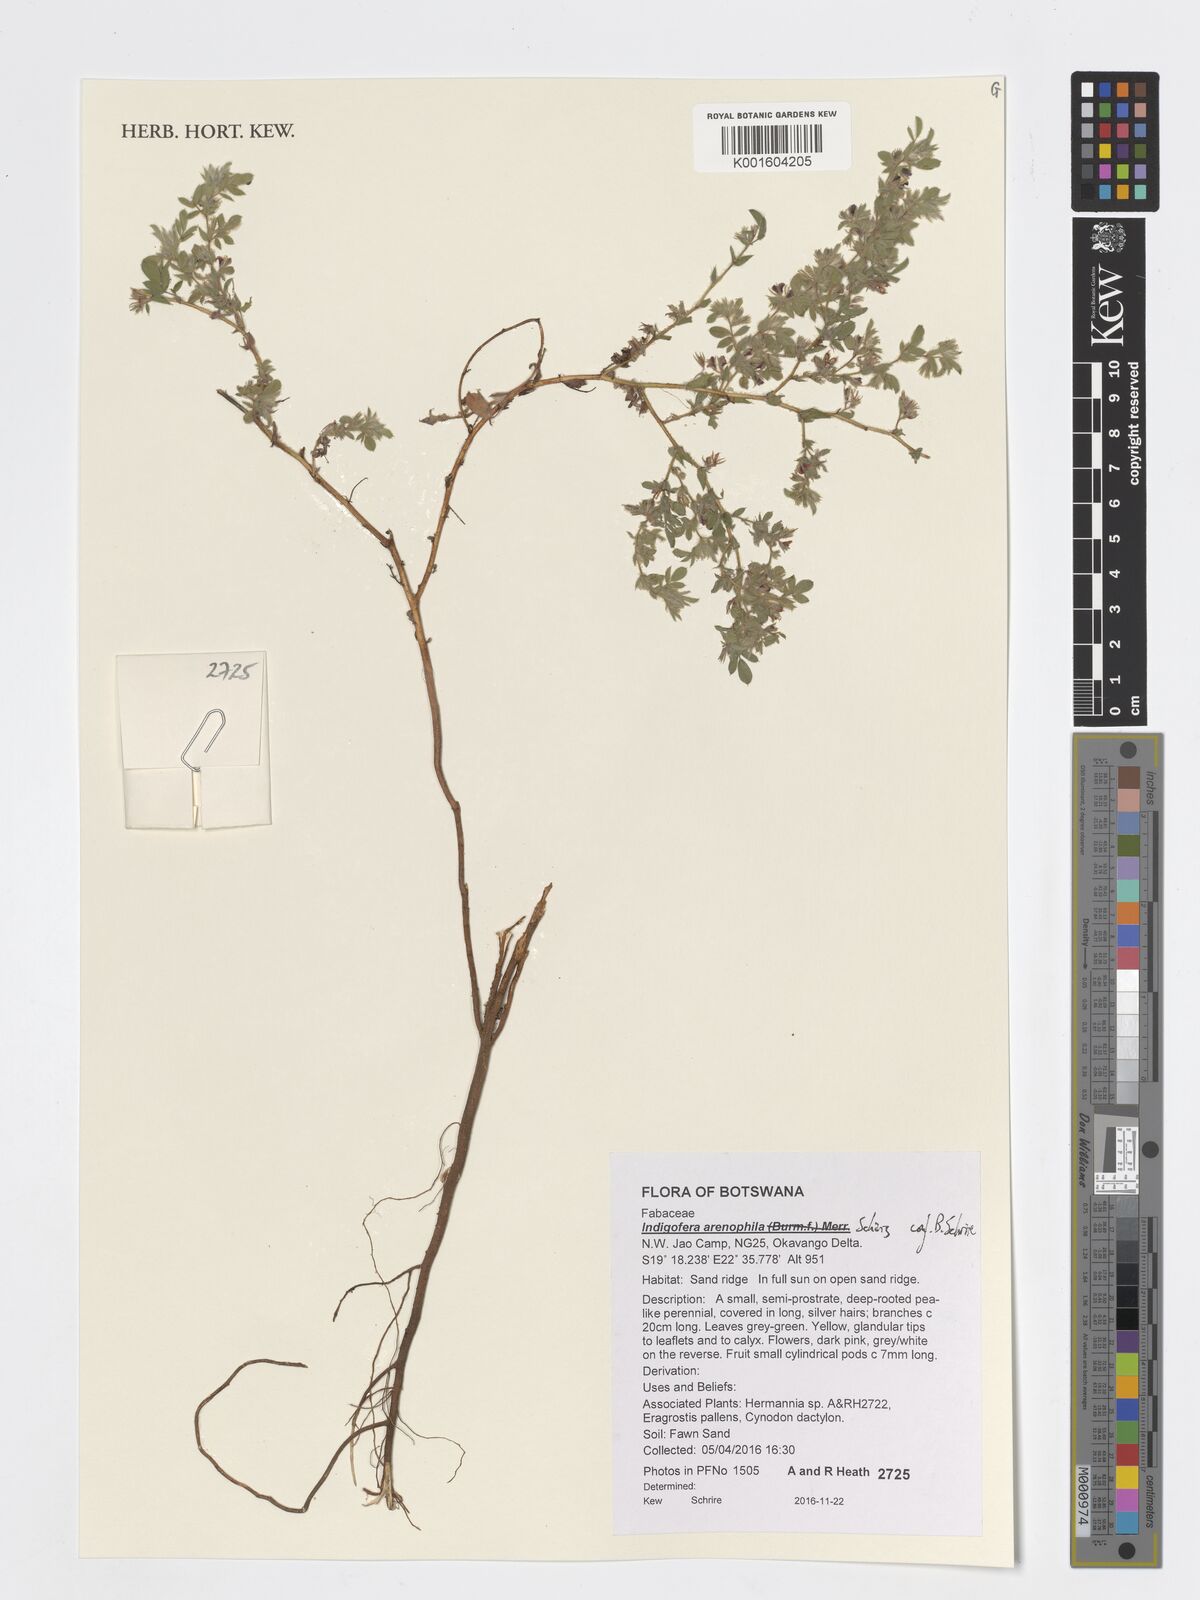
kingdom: Plantae
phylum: Tracheophyta
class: Magnoliopsida
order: Fabales
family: Fabaceae
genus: Indigofera
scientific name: Indigofera arenophila
